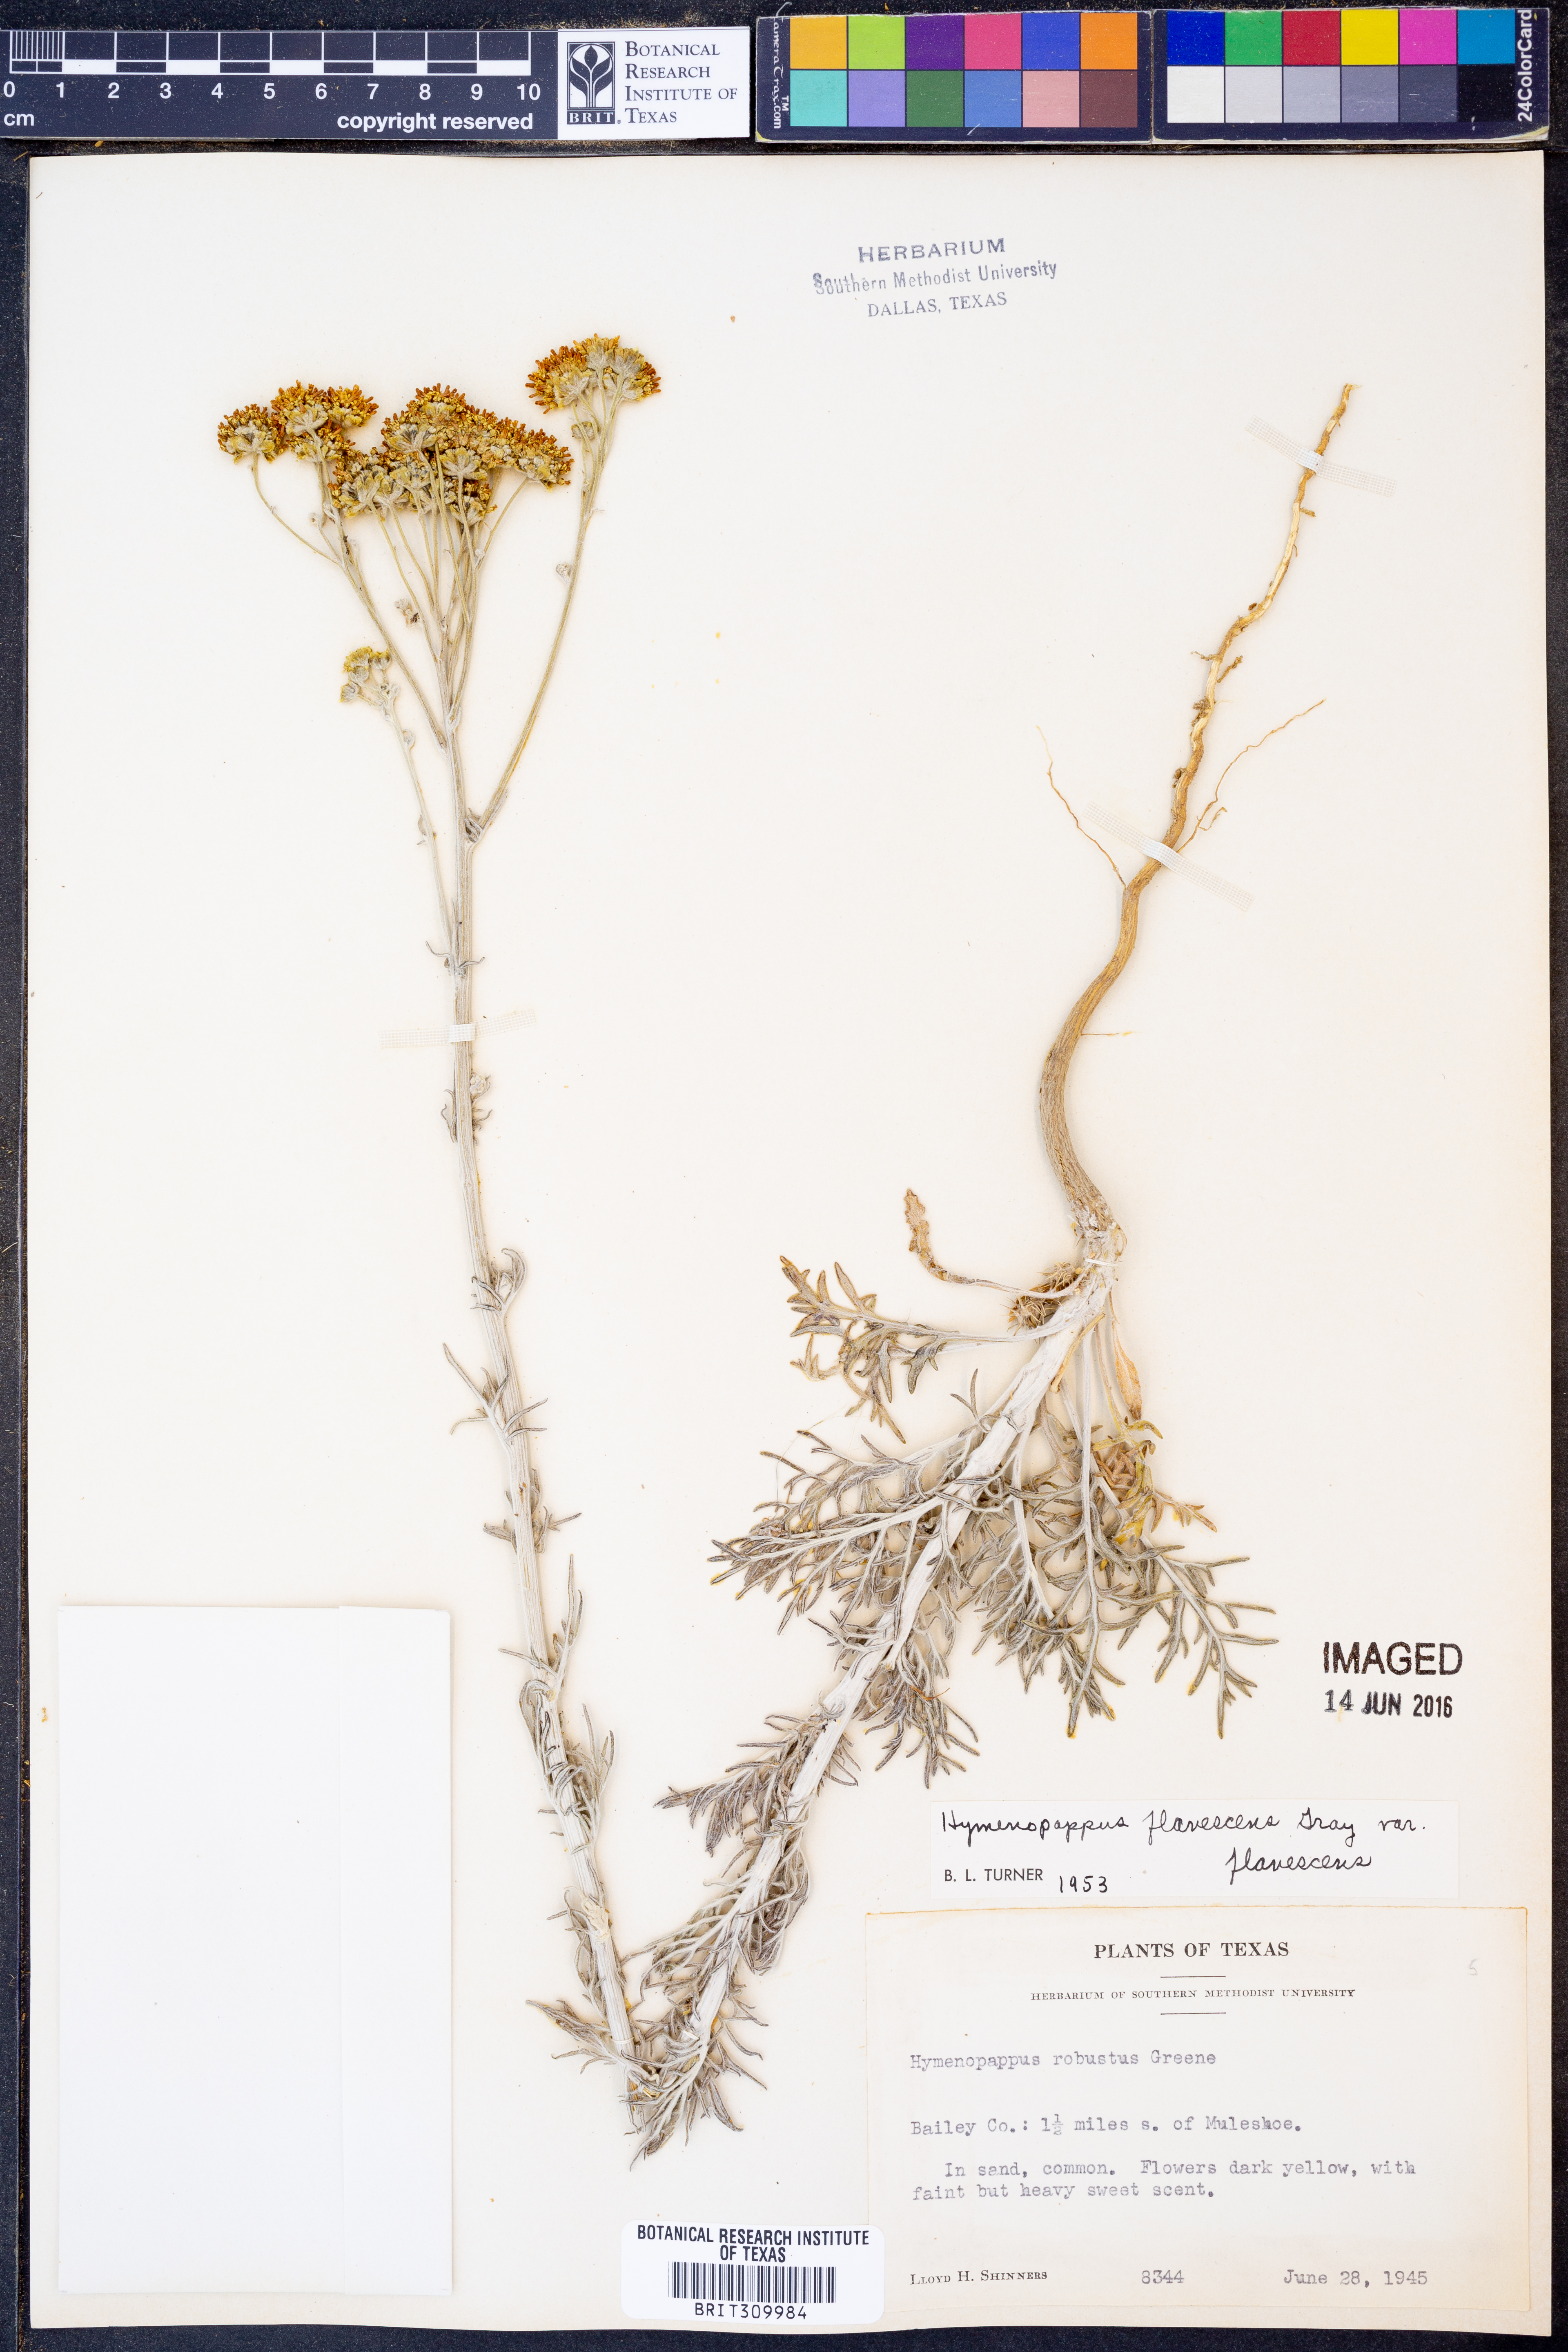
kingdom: Plantae
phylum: Tracheophyta
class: Magnoliopsida
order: Asterales
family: Asteraceae
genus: Hymenopappus
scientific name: Hymenopappus flavescens
